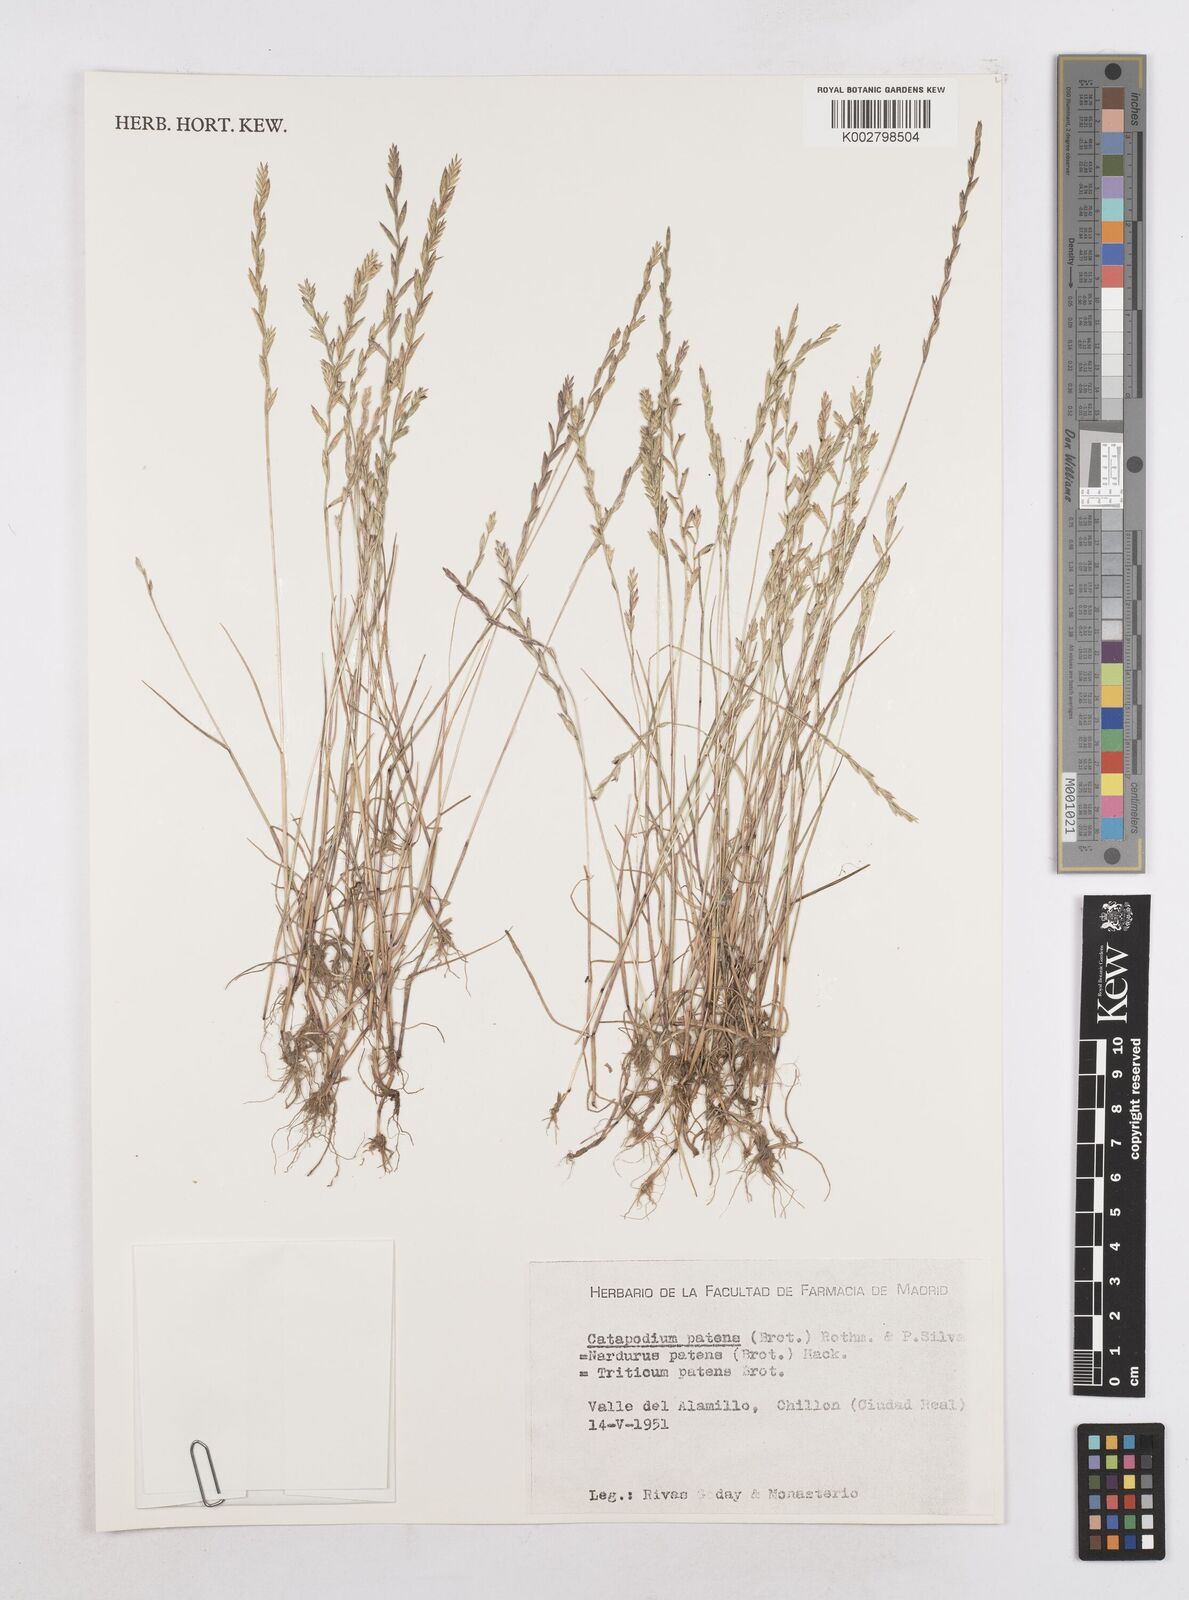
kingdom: Plantae
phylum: Tracheophyta
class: Liliopsida
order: Poales
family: Poaceae
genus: Festuca
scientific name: Festuca Micropyrum patens
